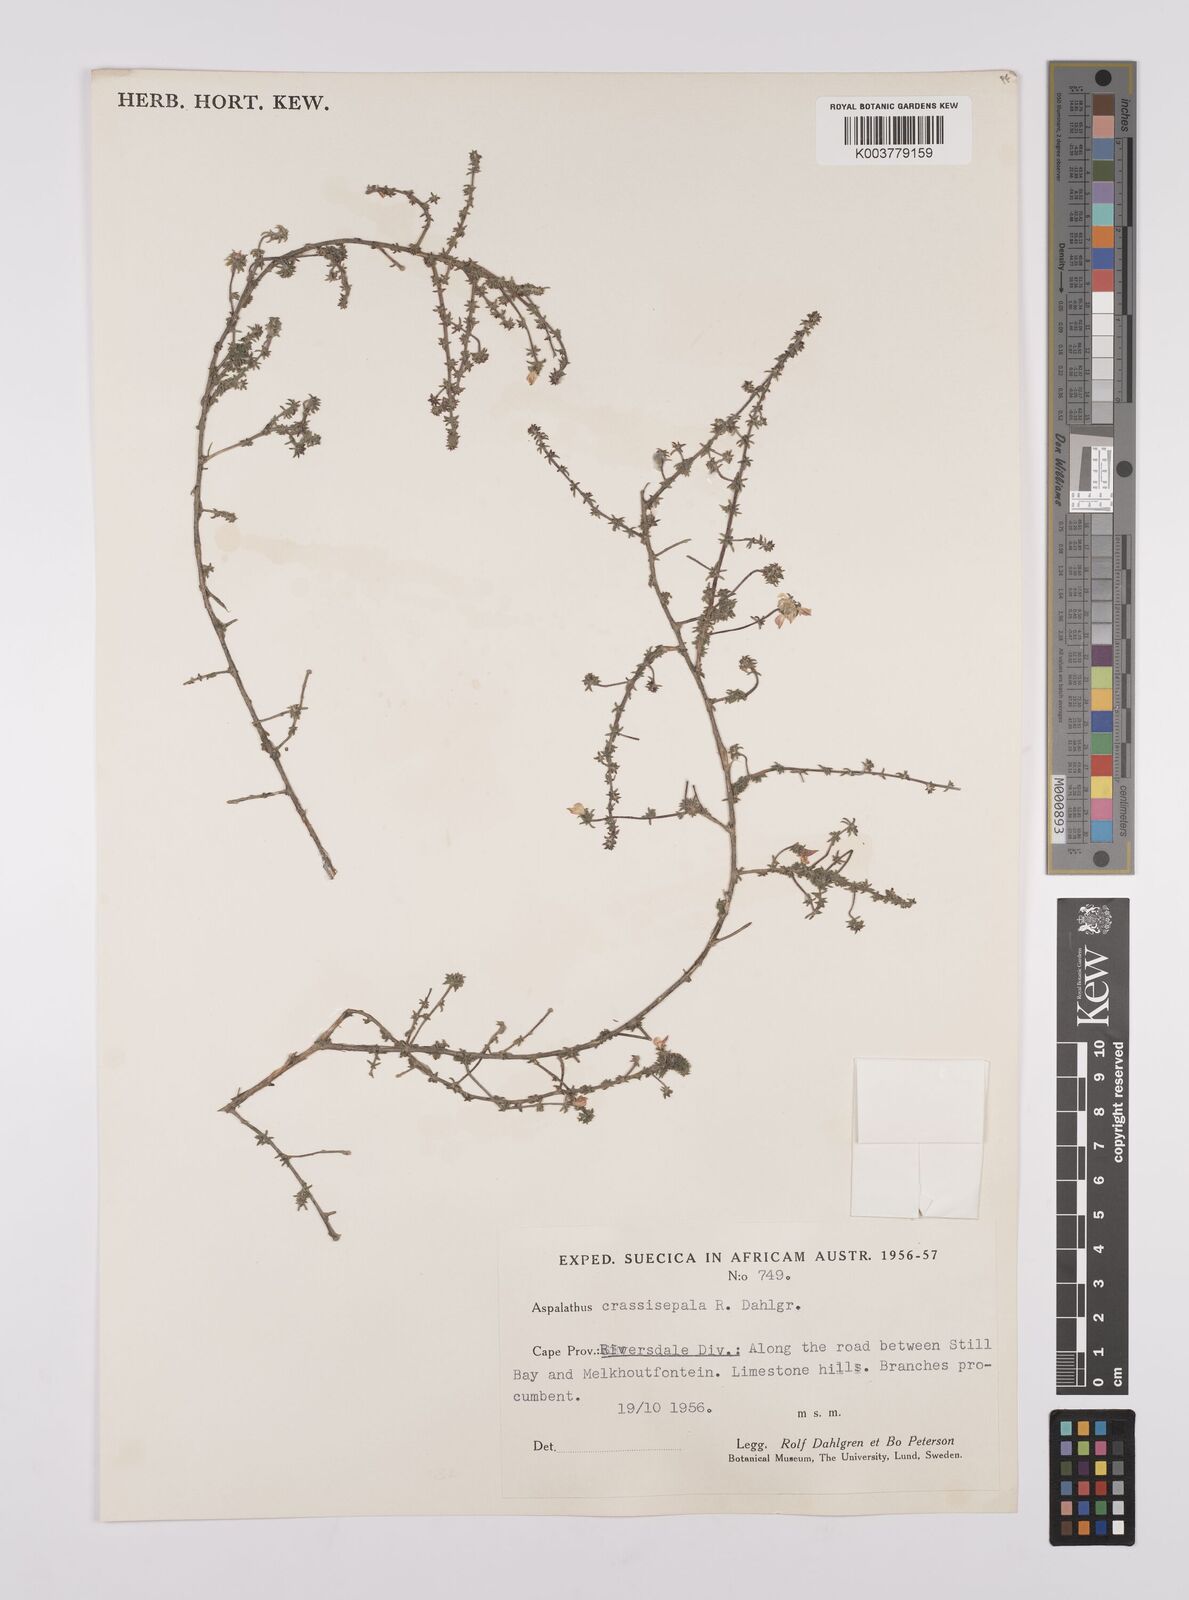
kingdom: Plantae
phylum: Tracheophyta
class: Magnoliopsida
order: Fabales
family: Fabaceae
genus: Aspalathus
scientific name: Aspalathus crassisepala
